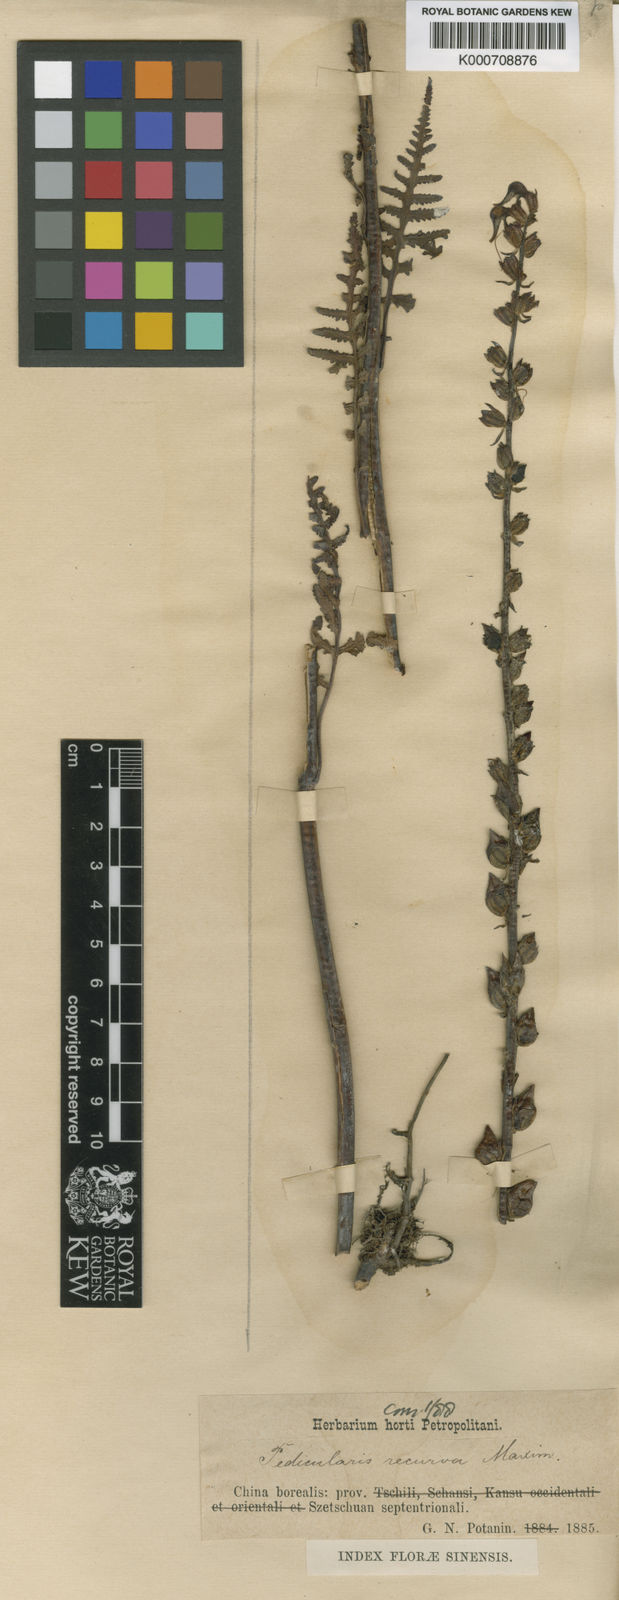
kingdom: Plantae
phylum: Tracheophyta
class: Magnoliopsida
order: Lamiales
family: Orobanchaceae
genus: Pedicularis
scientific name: Pedicularis recurva
